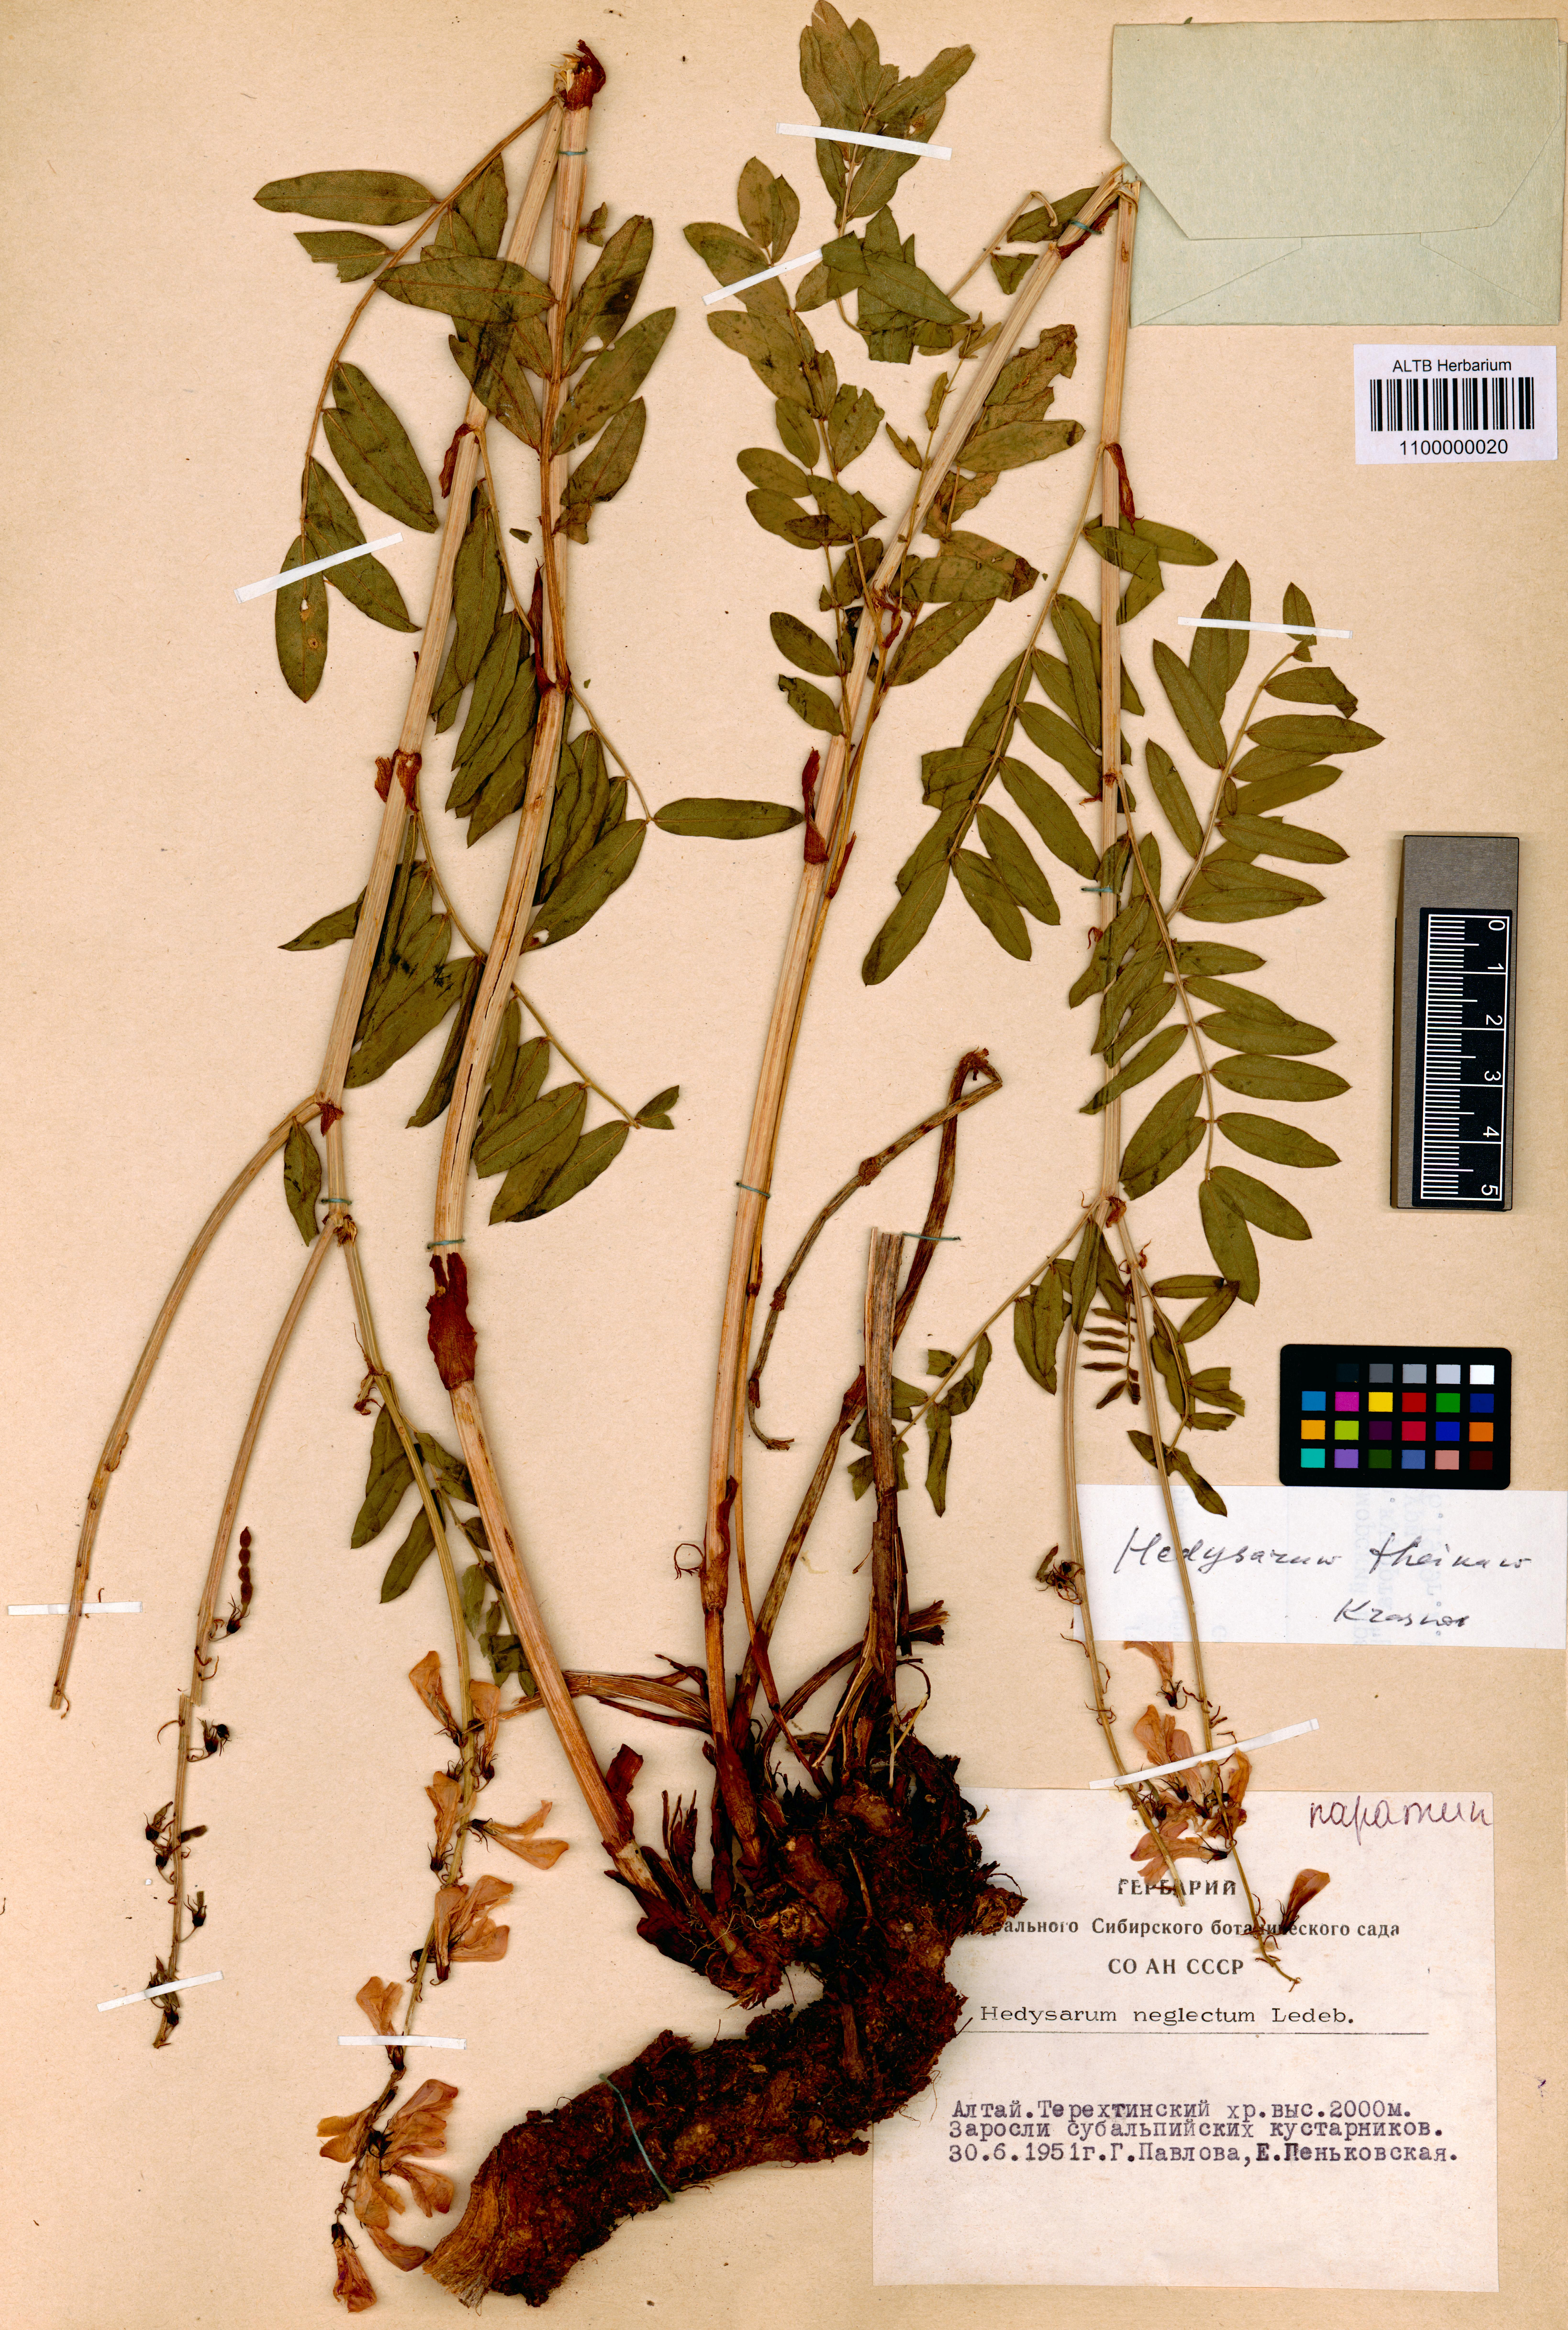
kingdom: Plantae
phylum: Tracheophyta
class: Magnoliopsida
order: Fabales
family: Fabaceae
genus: Hedysarum
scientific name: Hedysarum theinum
